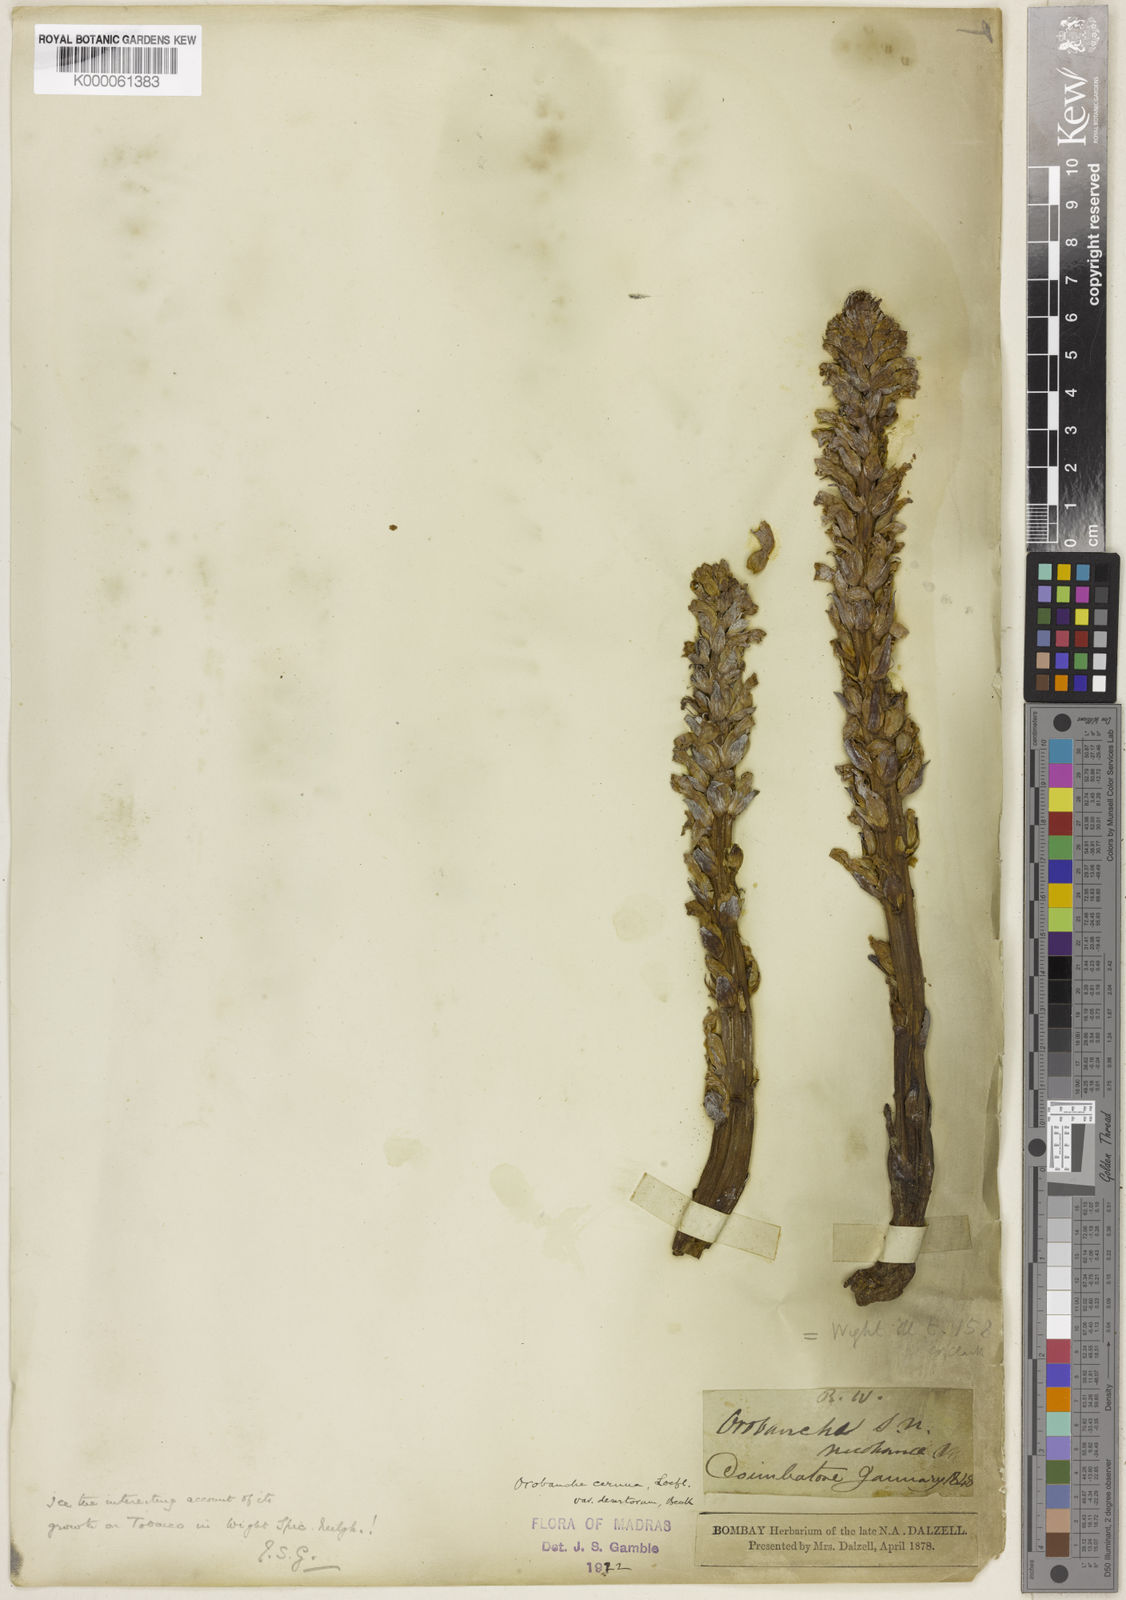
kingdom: Plantae
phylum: Tracheophyta
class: Magnoliopsida
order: Lamiales
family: Orobanchaceae
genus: Orobanche
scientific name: Orobanche cernua
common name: Australian broomrape
